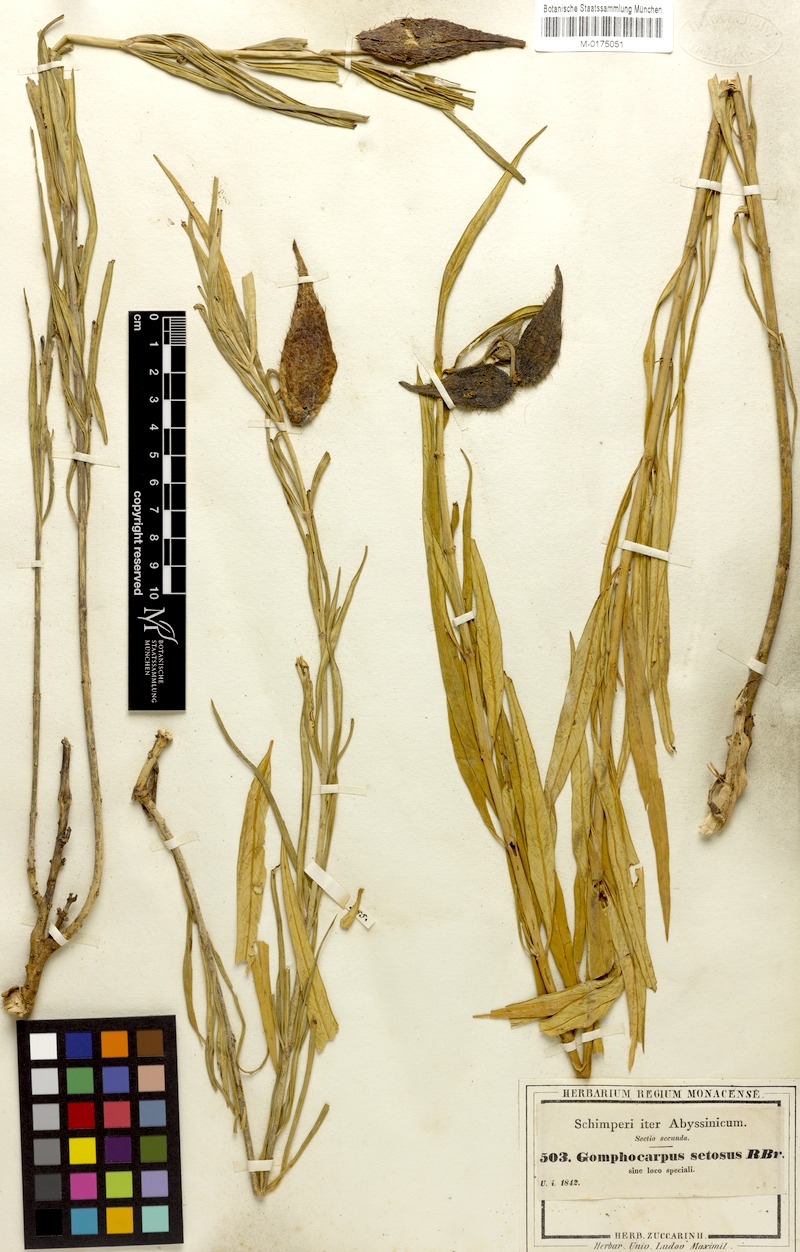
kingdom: Plantae
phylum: Tracheophyta
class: Magnoliopsida
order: Gentianales
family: Apocynaceae
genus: Gomphocarpus
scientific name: Gomphocarpus fruticosus
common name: Milkweed
